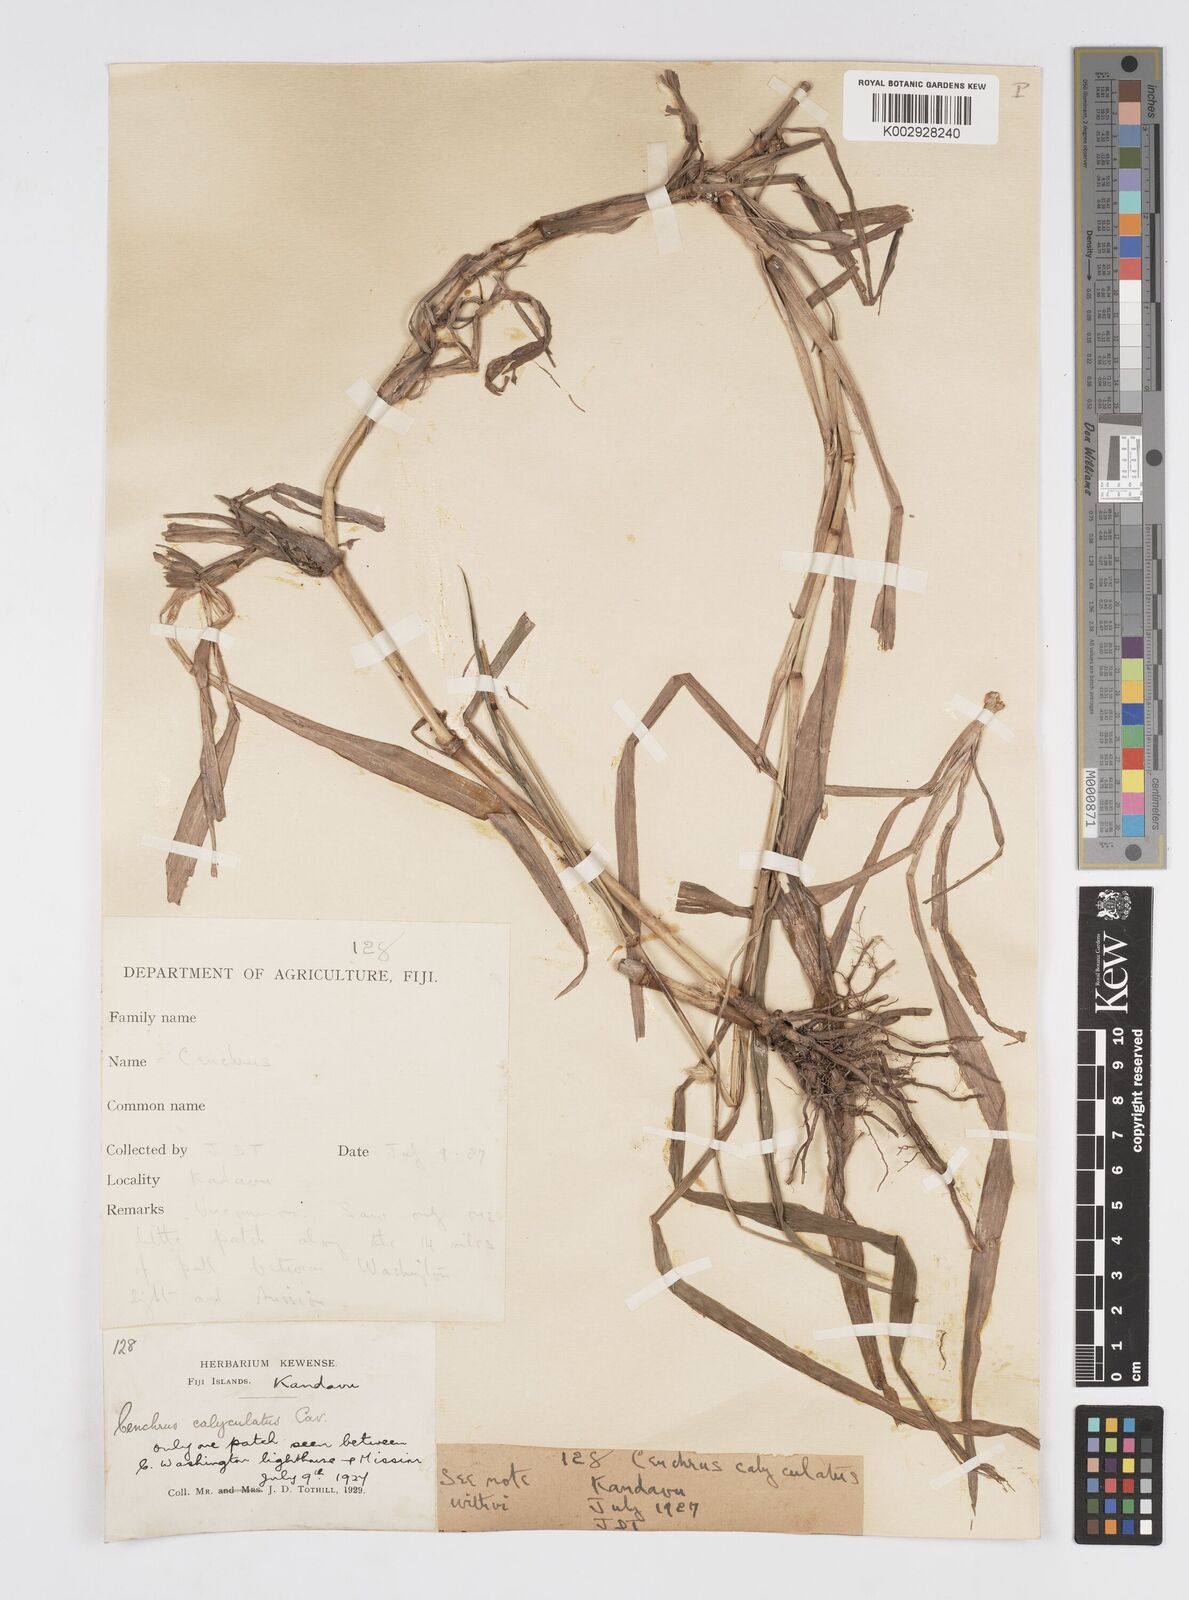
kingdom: Plantae
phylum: Tracheophyta
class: Liliopsida
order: Poales
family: Poaceae
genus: Cenchrus
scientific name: Cenchrus caliculatus
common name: Large bur grass
